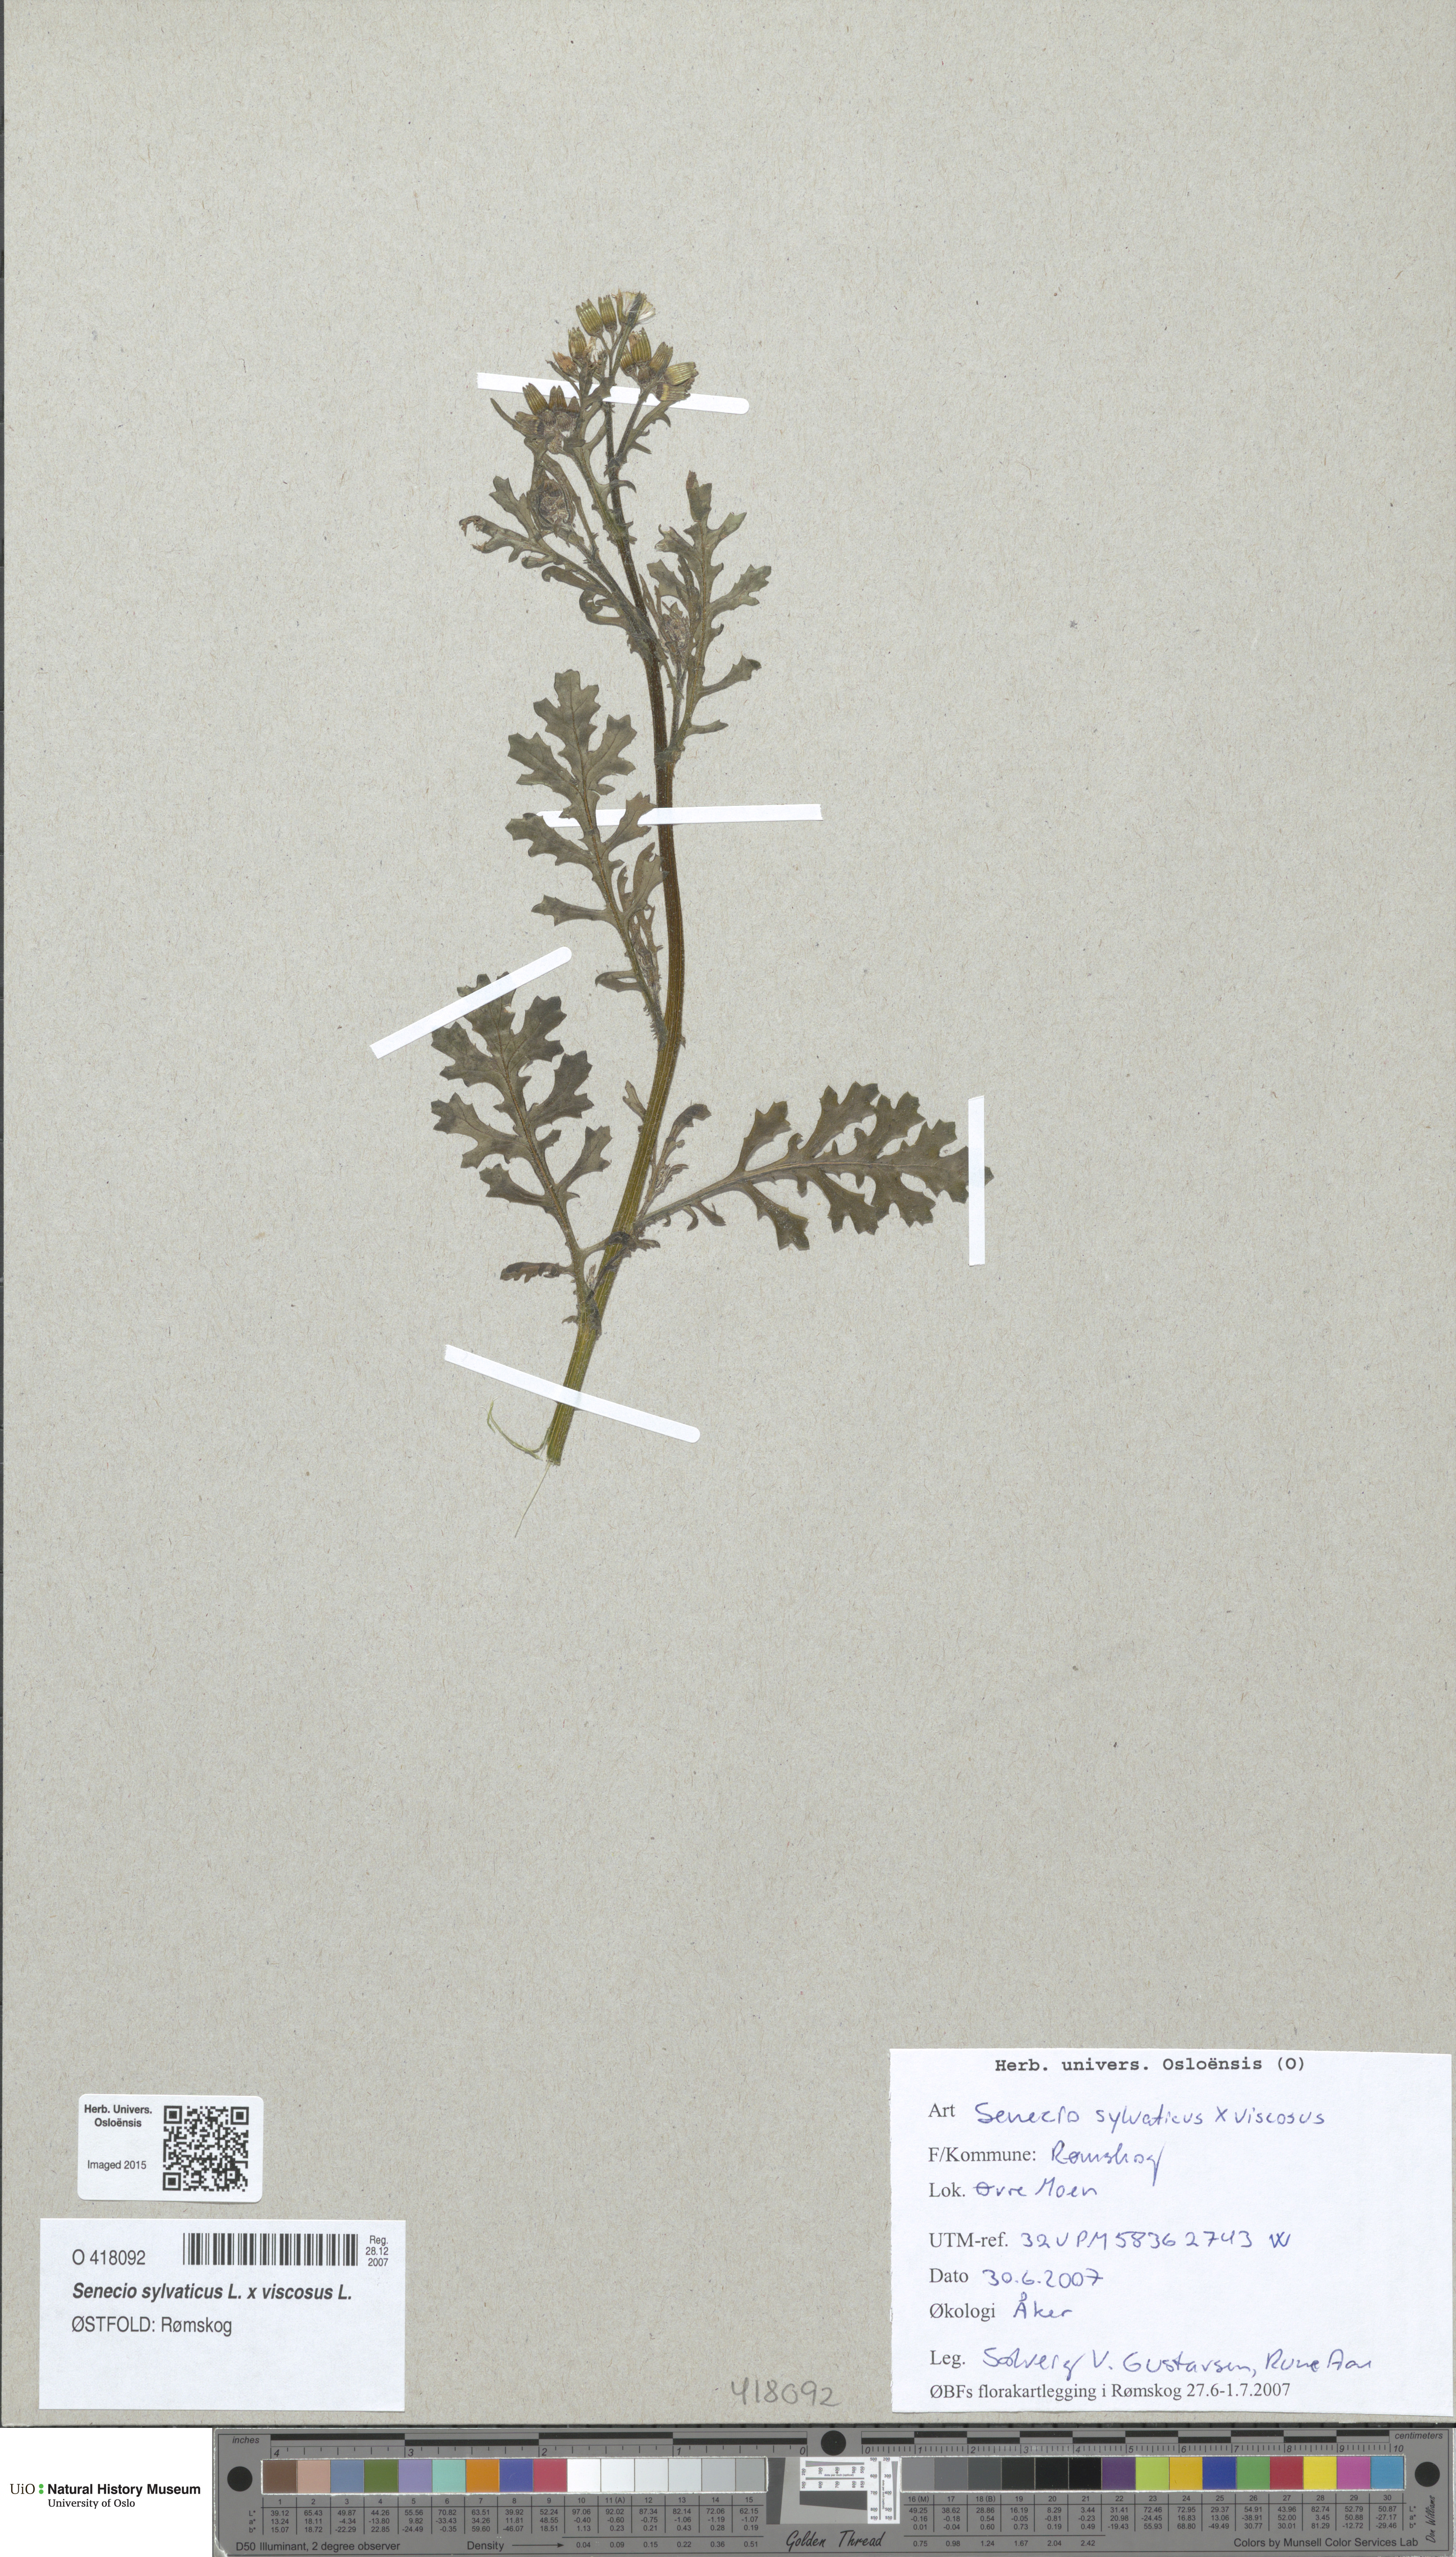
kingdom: Plantae
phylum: Tracheophyta
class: Magnoliopsida
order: Asterales
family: Asteraceae
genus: Senecio
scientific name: Senecio
